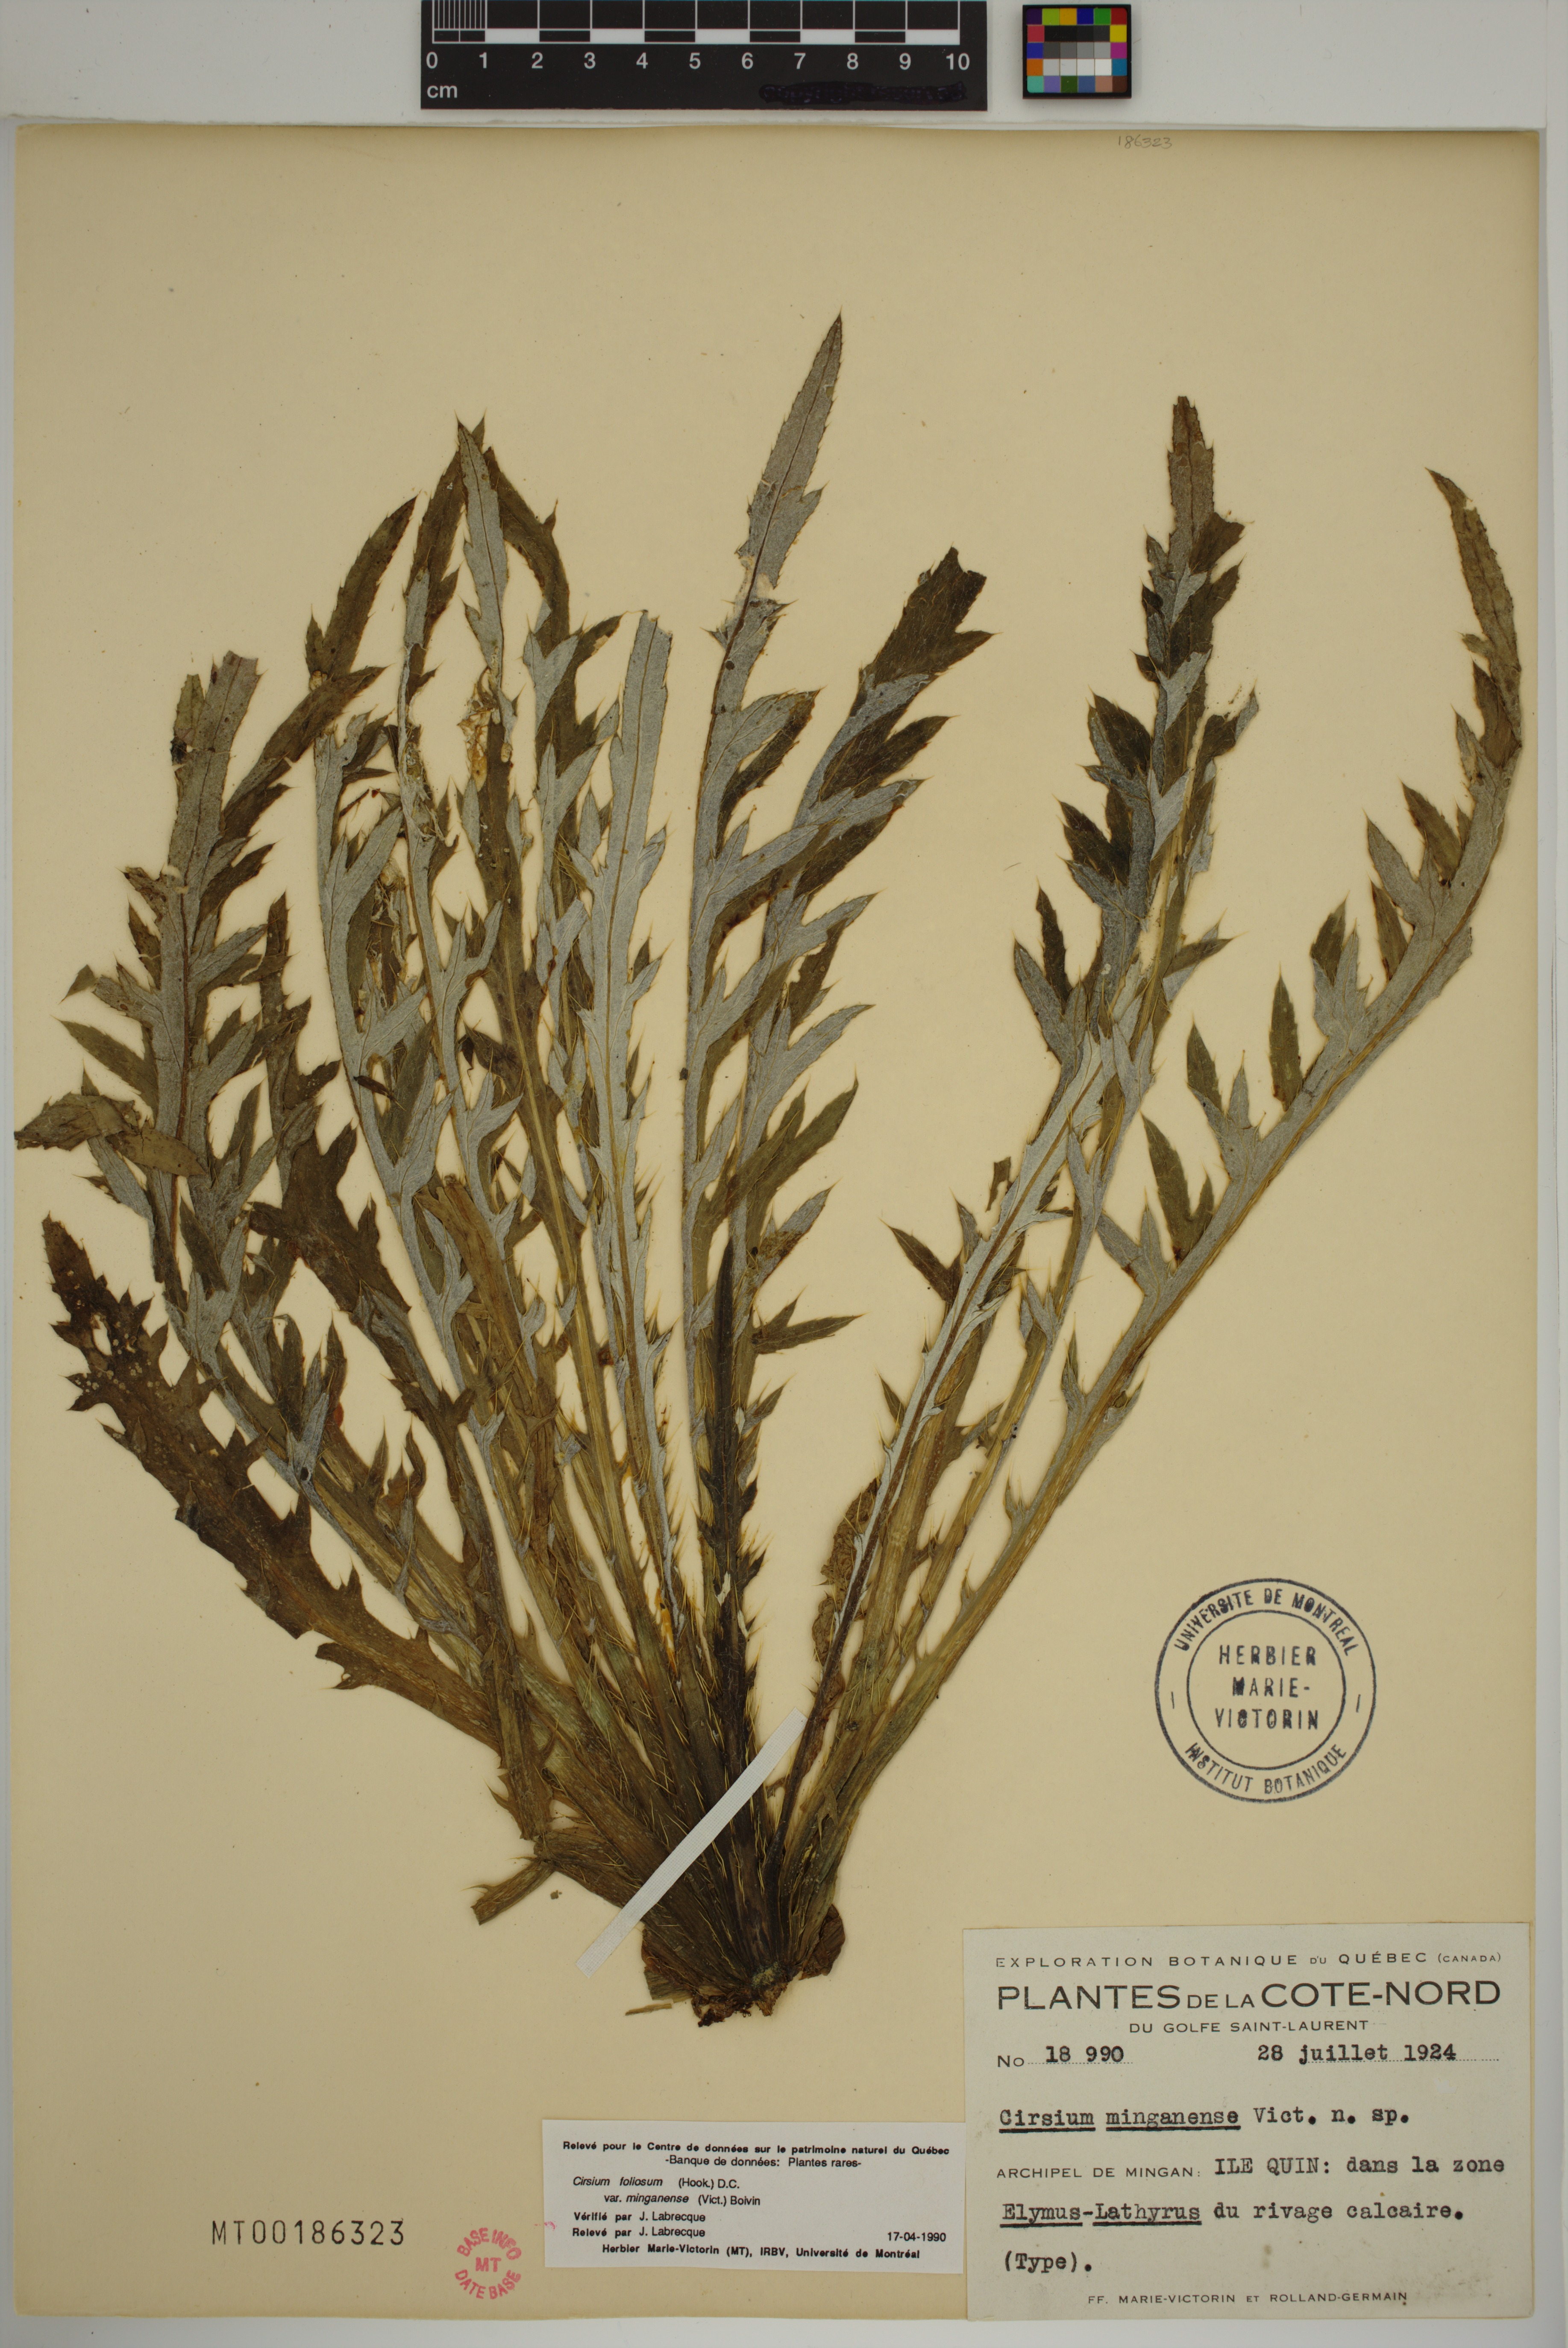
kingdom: Plantae
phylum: Tracheophyta
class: Magnoliopsida
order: Asterales
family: Asteraceae
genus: Cirsium
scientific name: Cirsium scariosum
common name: Meadow thistle
